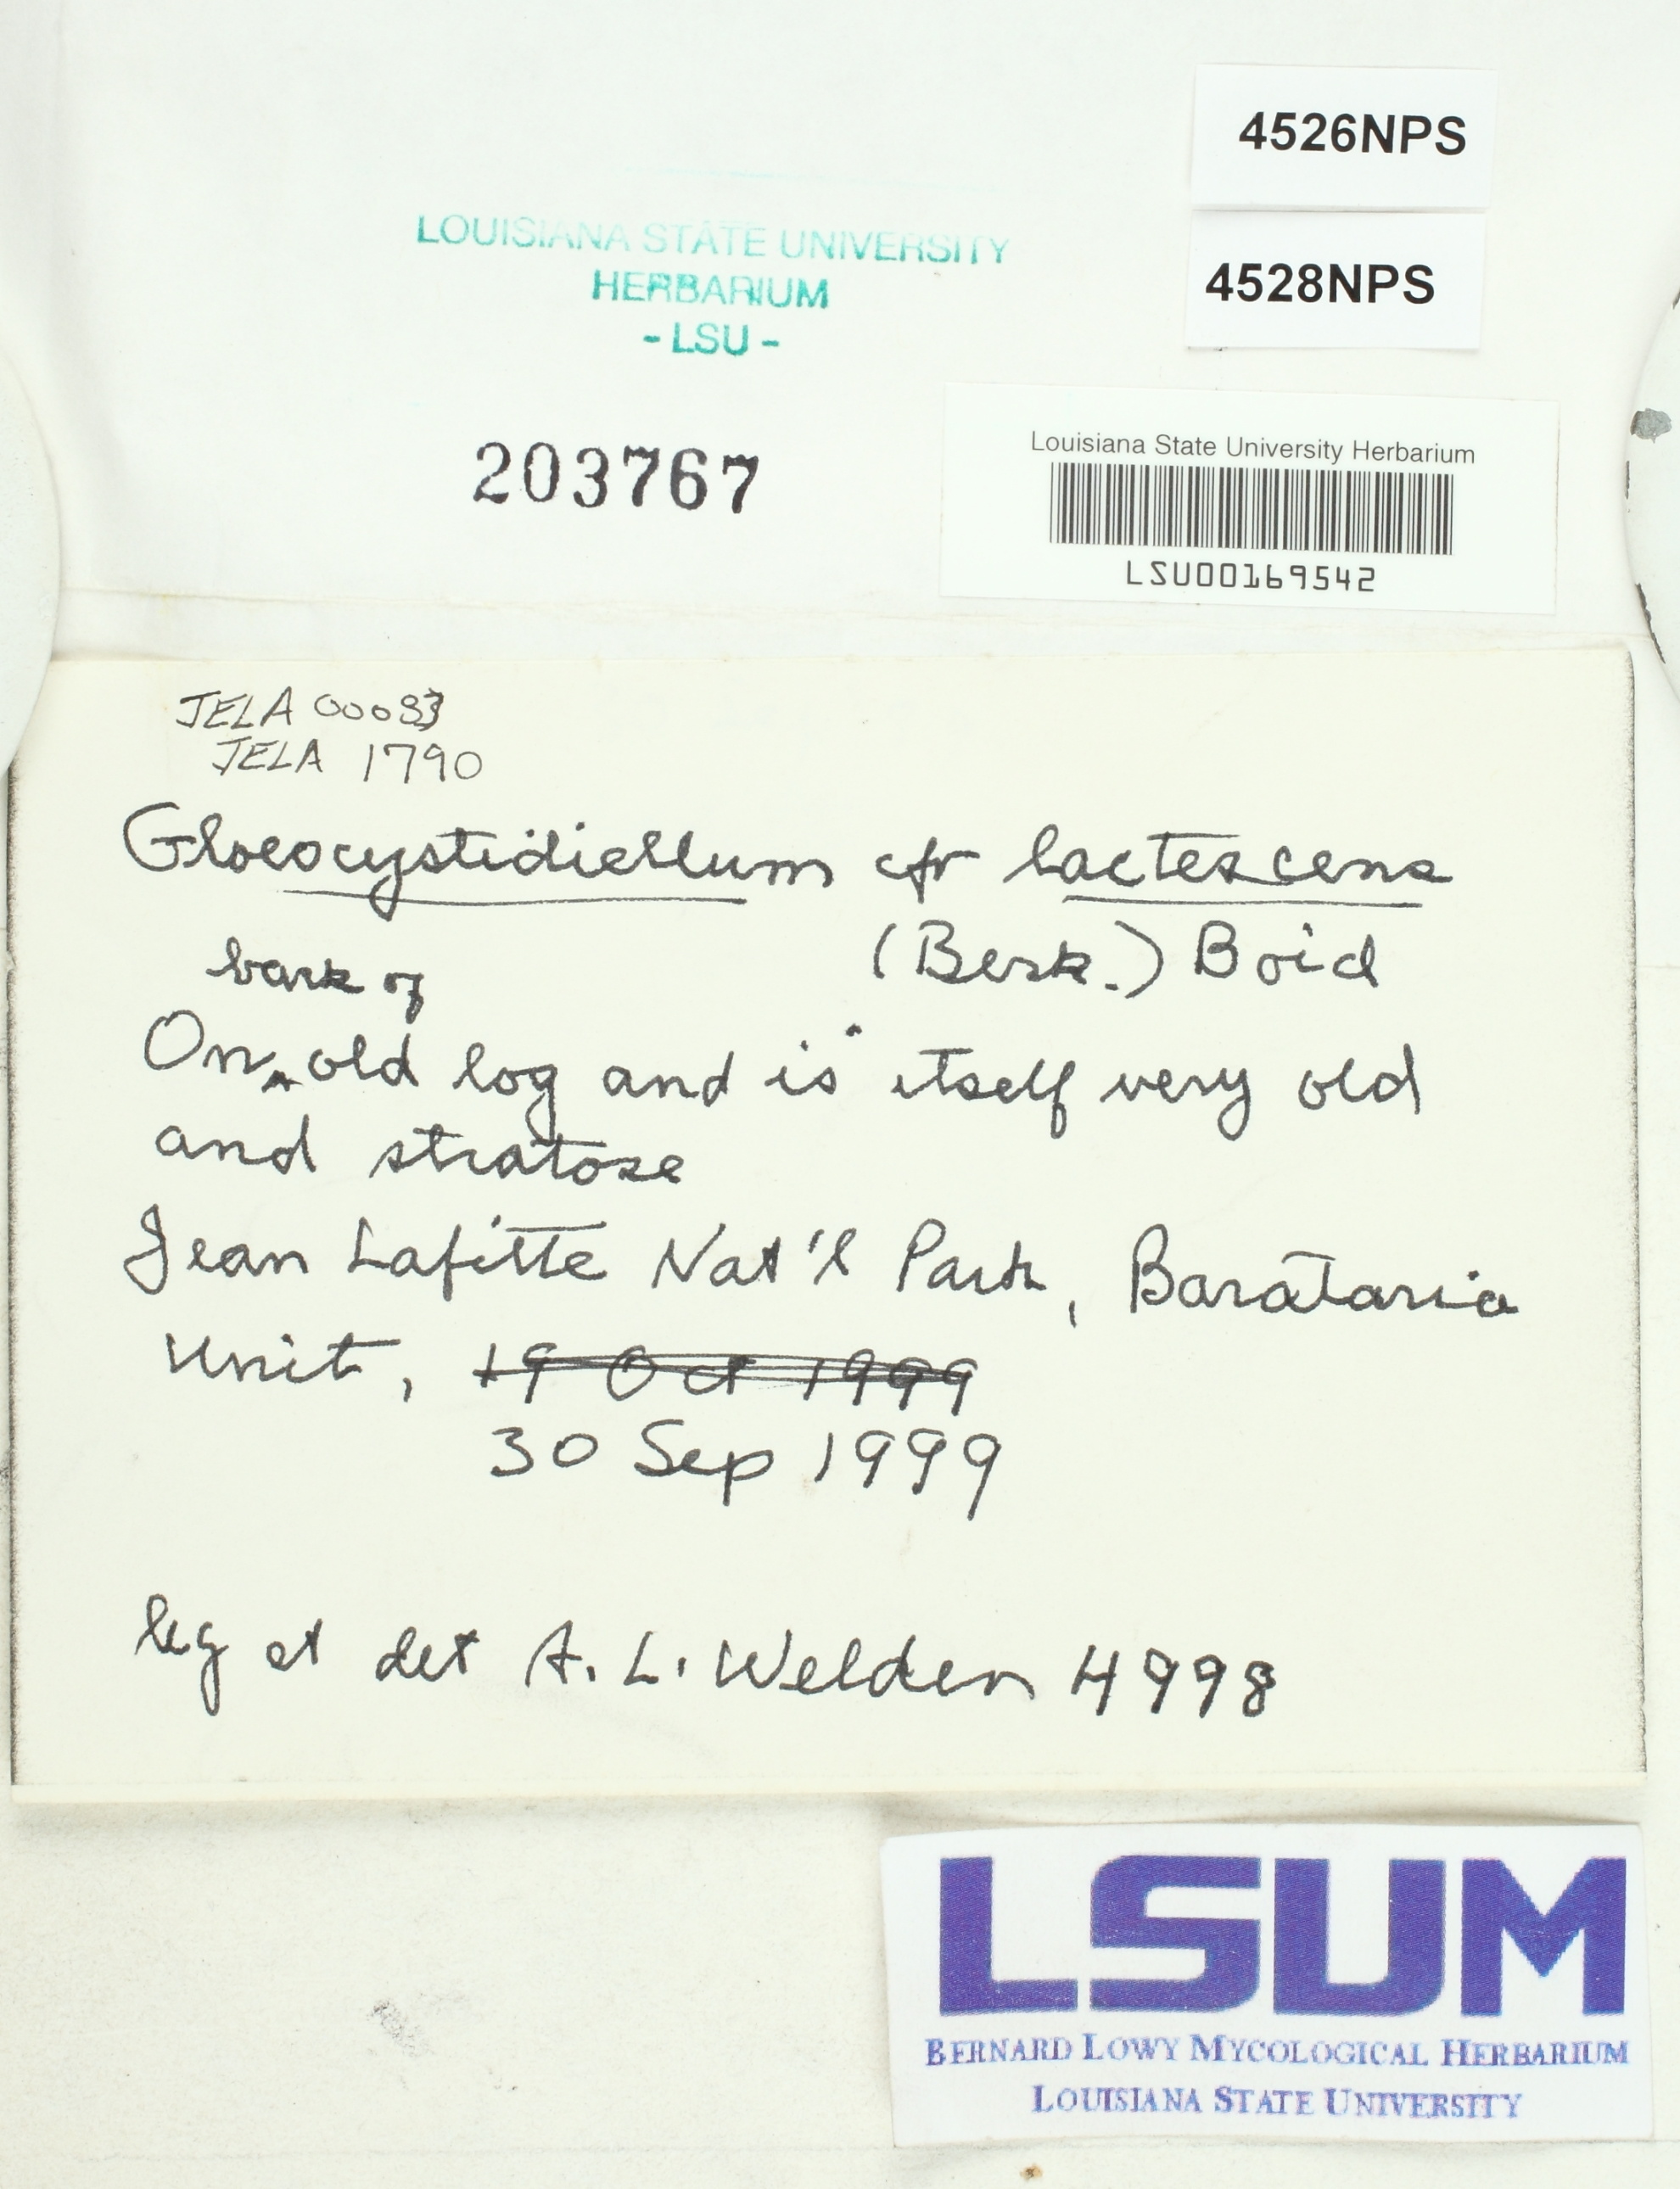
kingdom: Fungi
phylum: Basidiomycota
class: Agaricomycetes
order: Russulales
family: Peniophoraceae
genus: Gloiothele
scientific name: Gloiothele lactescens
